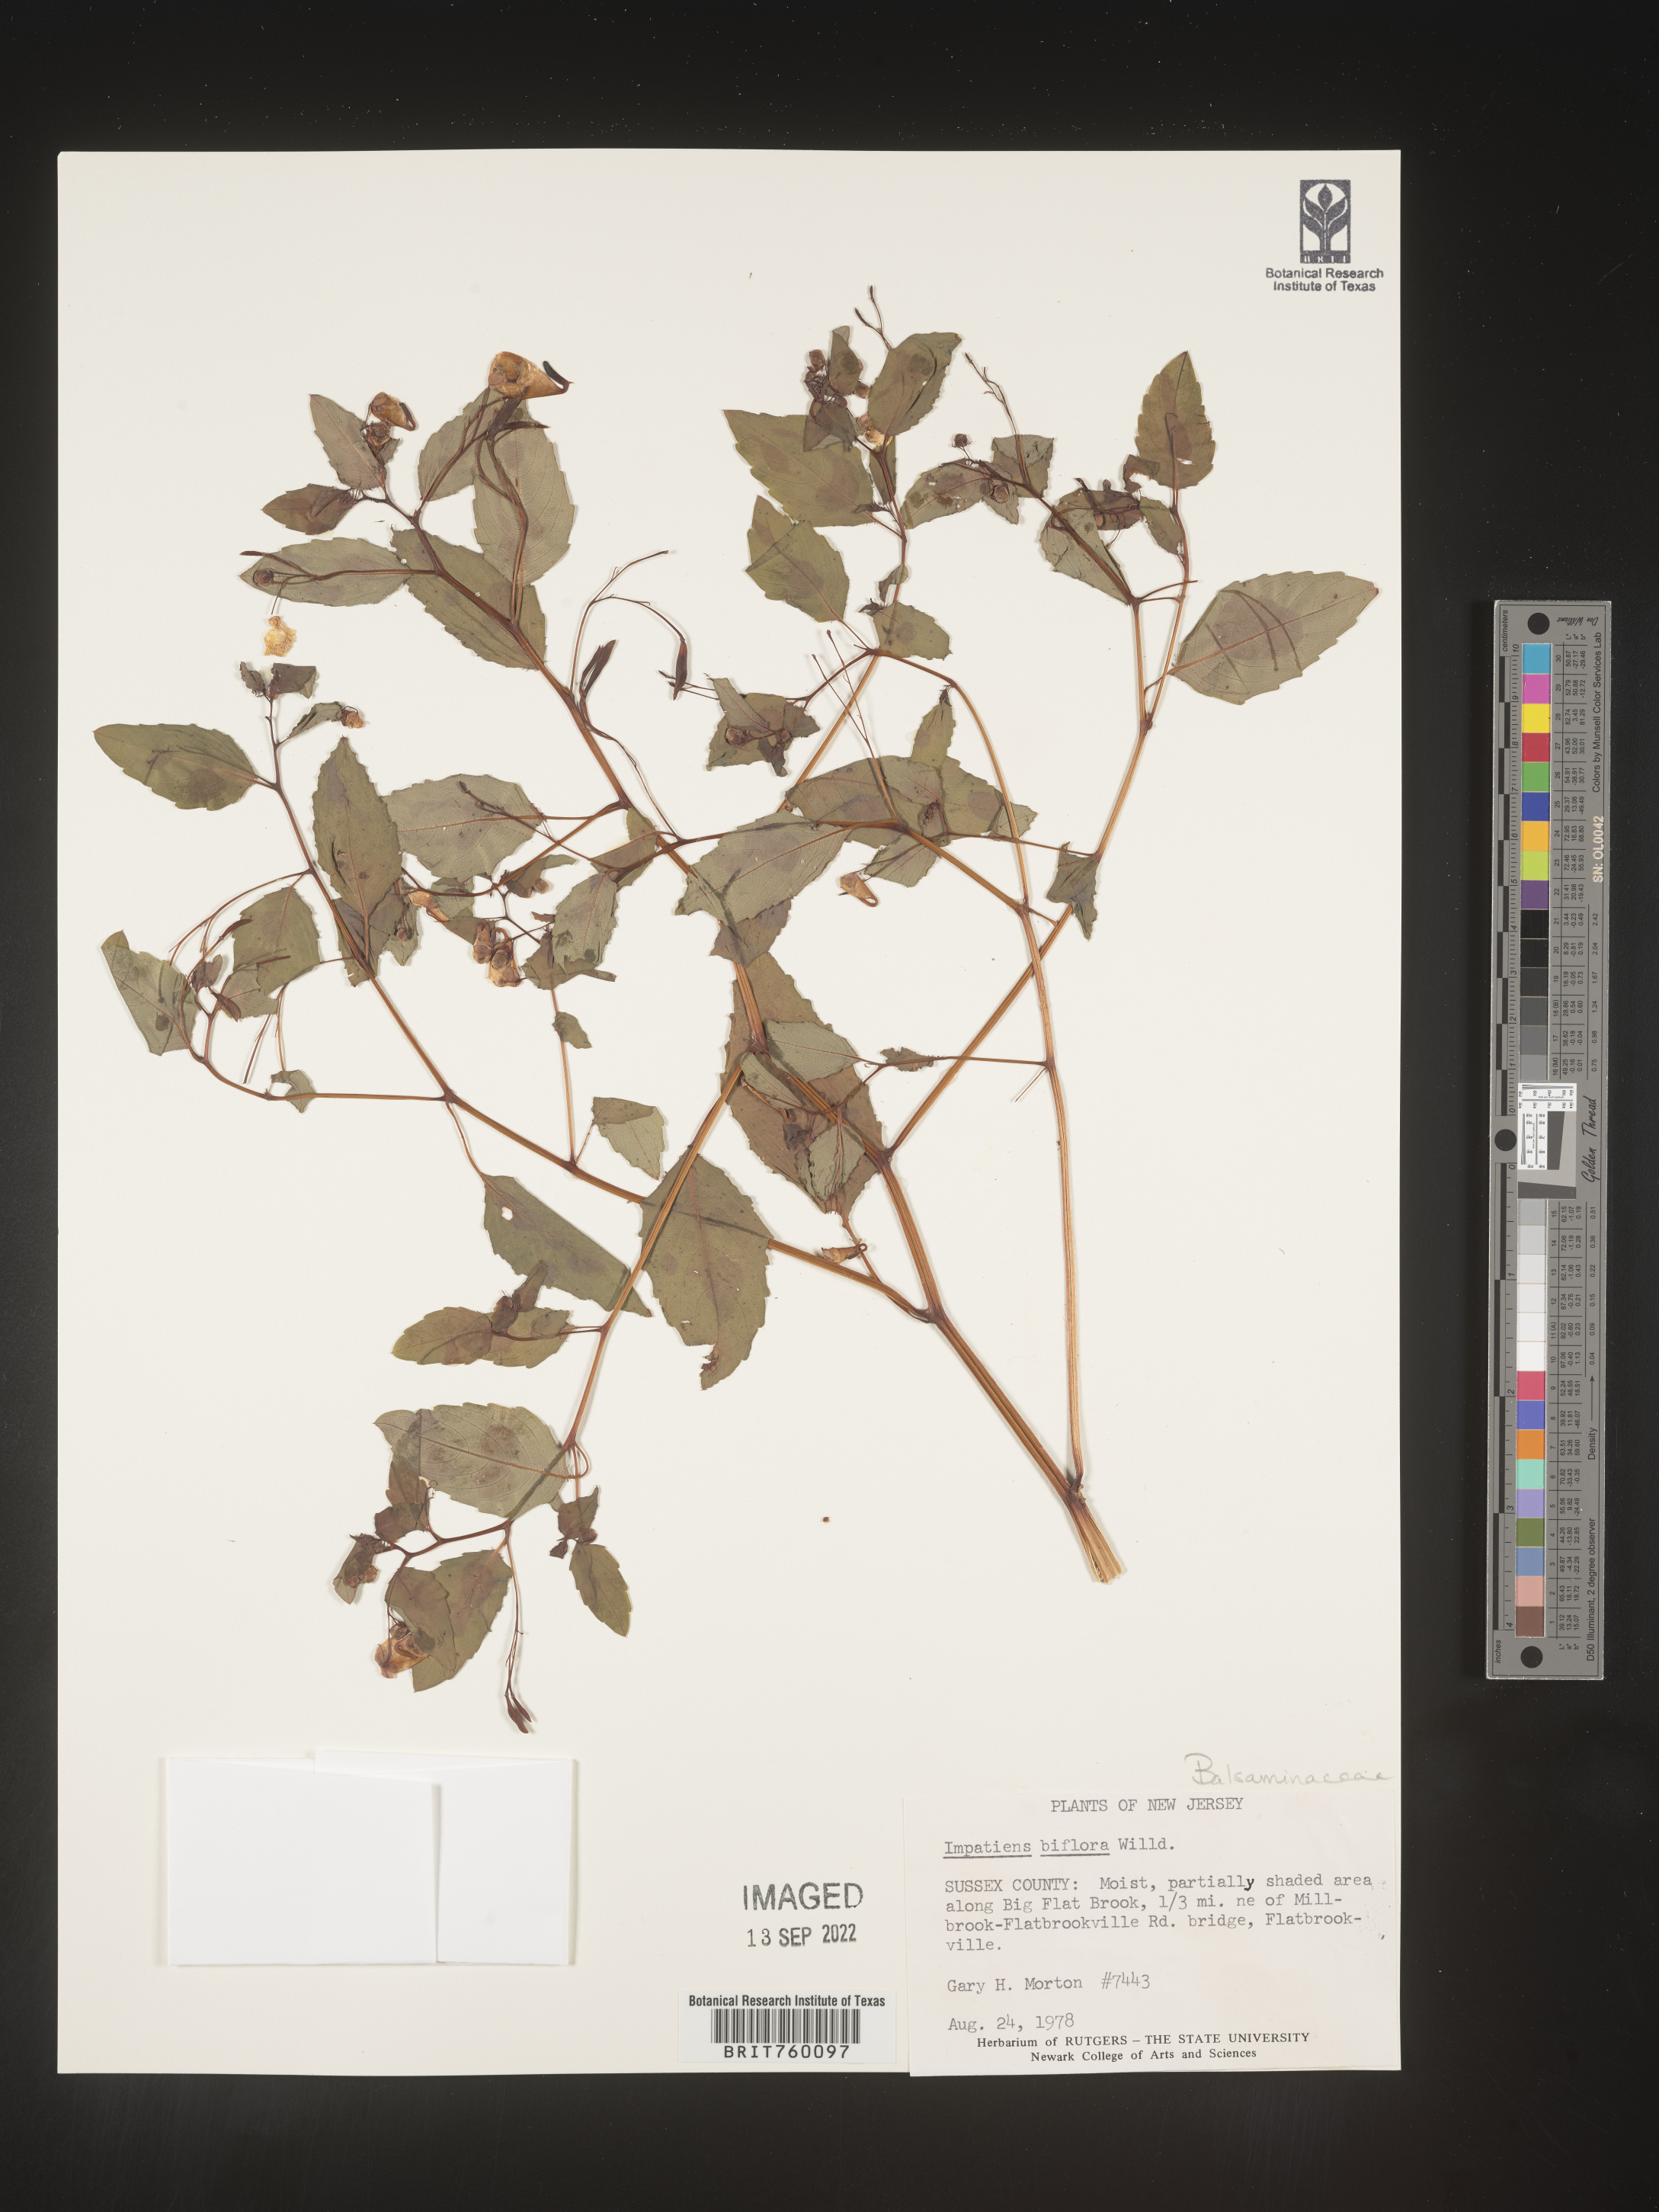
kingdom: Plantae
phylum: Tracheophyta
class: Magnoliopsida
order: Ericales
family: Balsaminaceae
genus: Impatiens
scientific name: Impatiens
